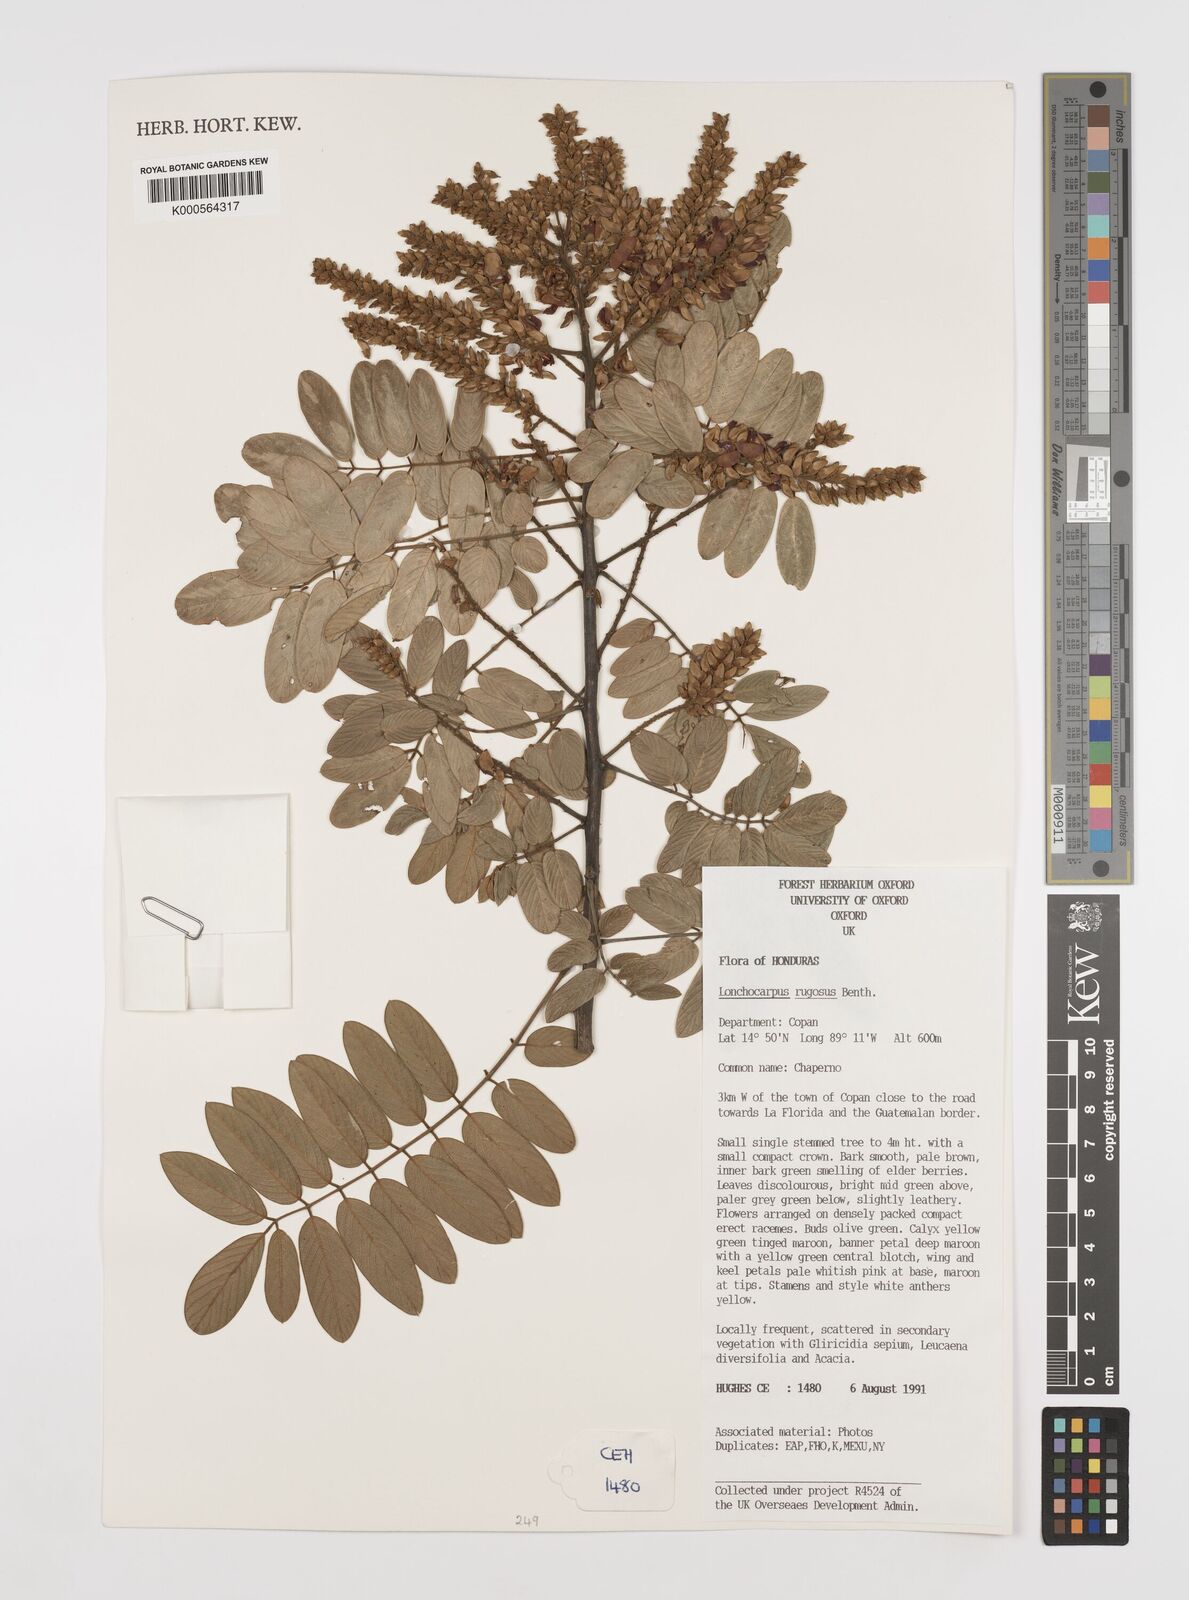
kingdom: Plantae
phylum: Tracheophyta
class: Magnoliopsida
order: Fabales
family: Fabaceae
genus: Lonchocarpus
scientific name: Lonchocarpus rugosus
